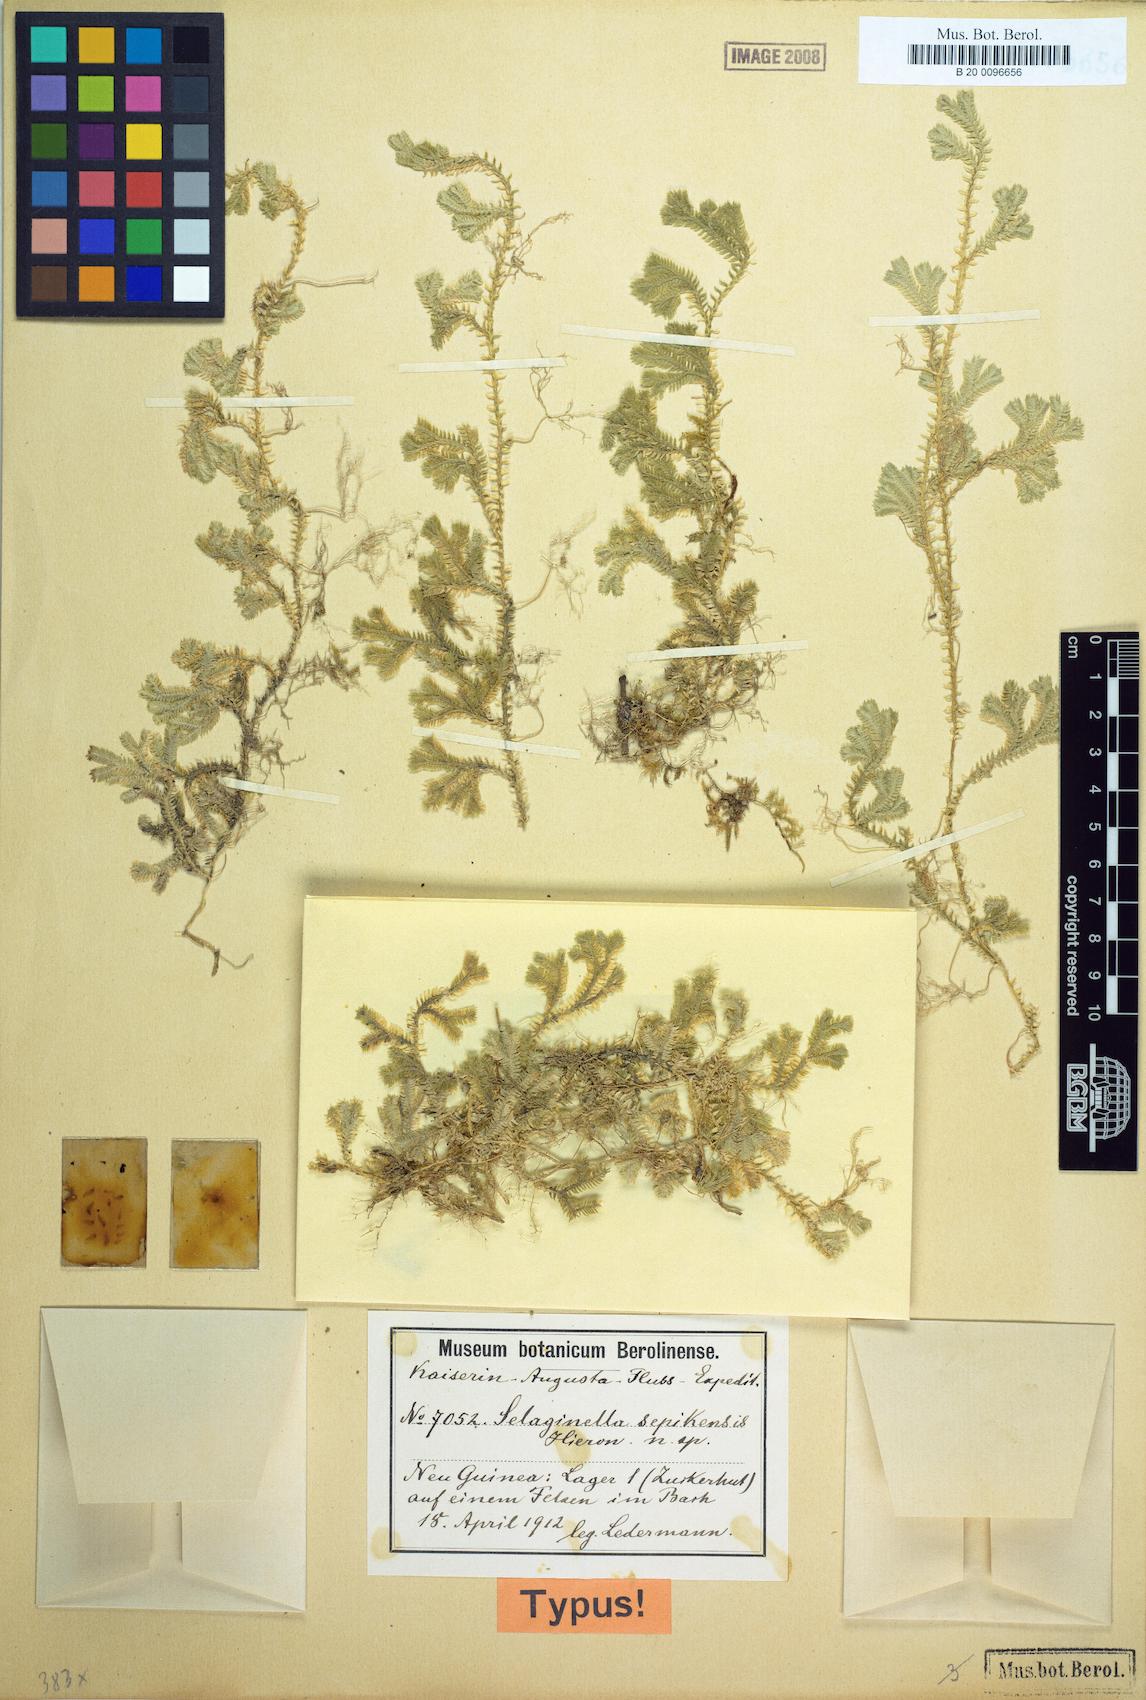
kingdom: Plantae
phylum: Tracheophyta
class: Lycopodiopsida
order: Selaginellales
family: Selaginellaceae
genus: Selaginella
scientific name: Selaginella sepikensis
